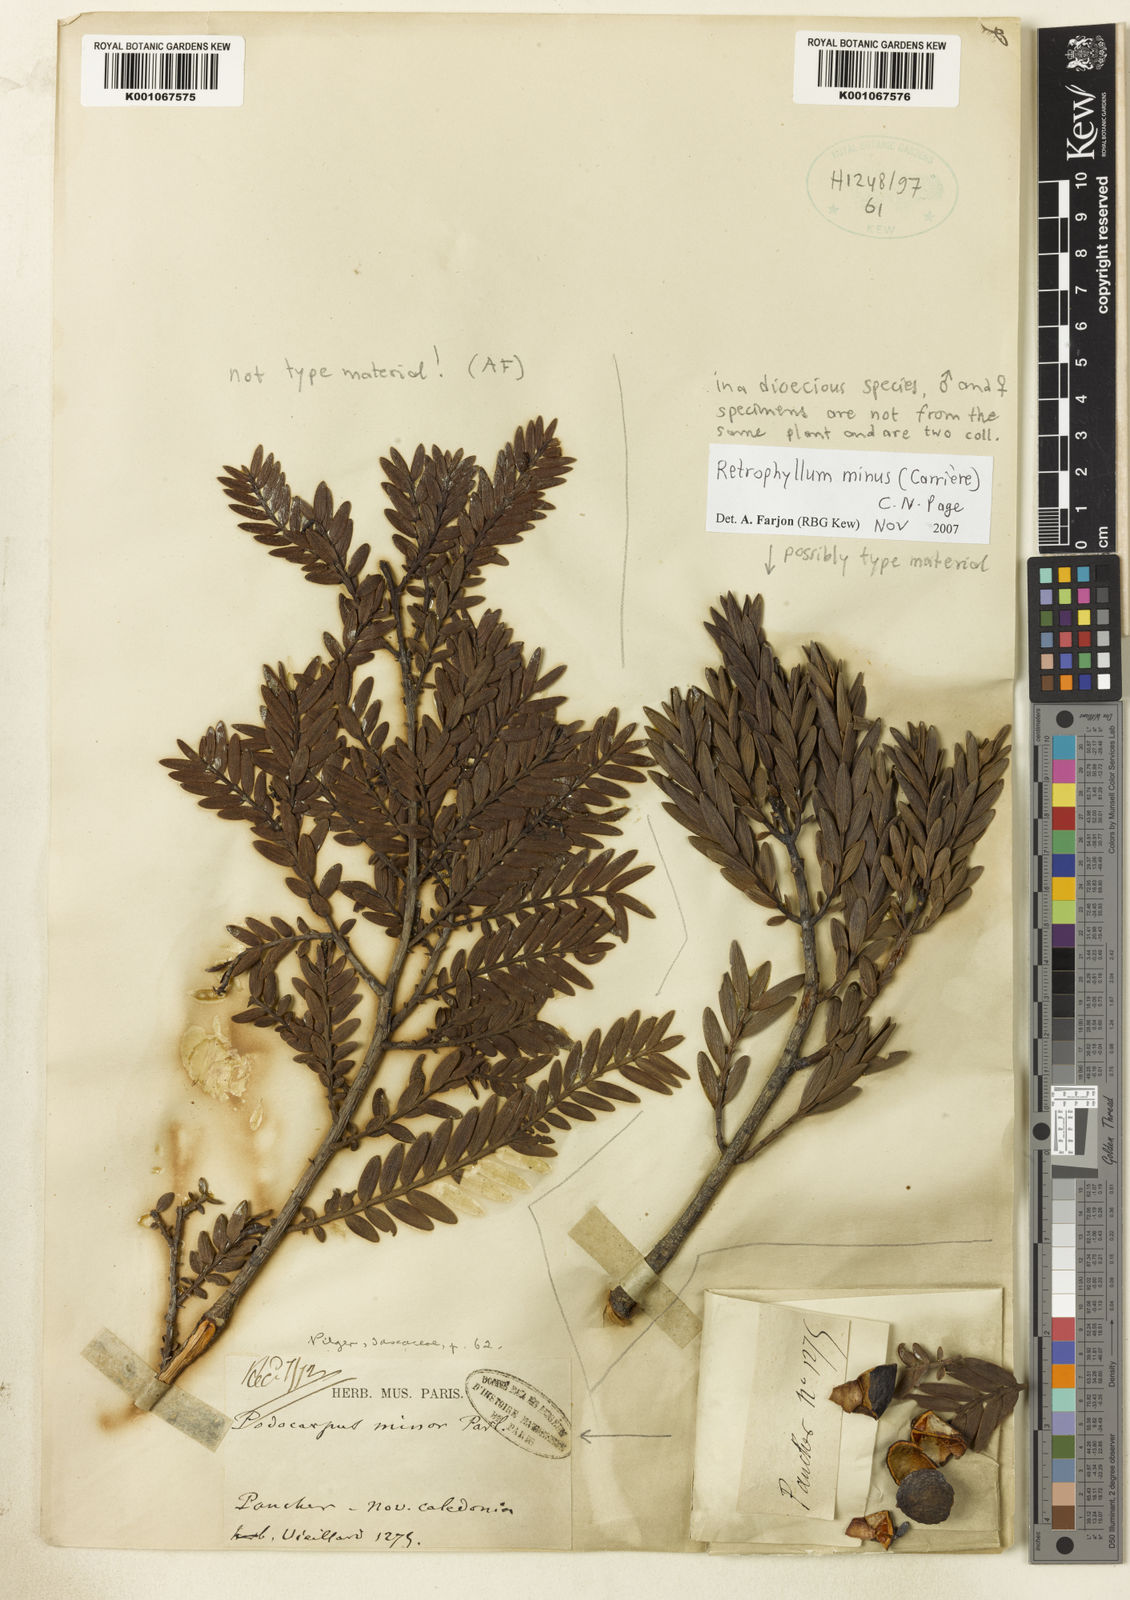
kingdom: Plantae
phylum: Tracheophyta
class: Pinopsida
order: Pinales
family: Podocarpaceae
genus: Retrophyllum
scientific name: Retrophyllum
